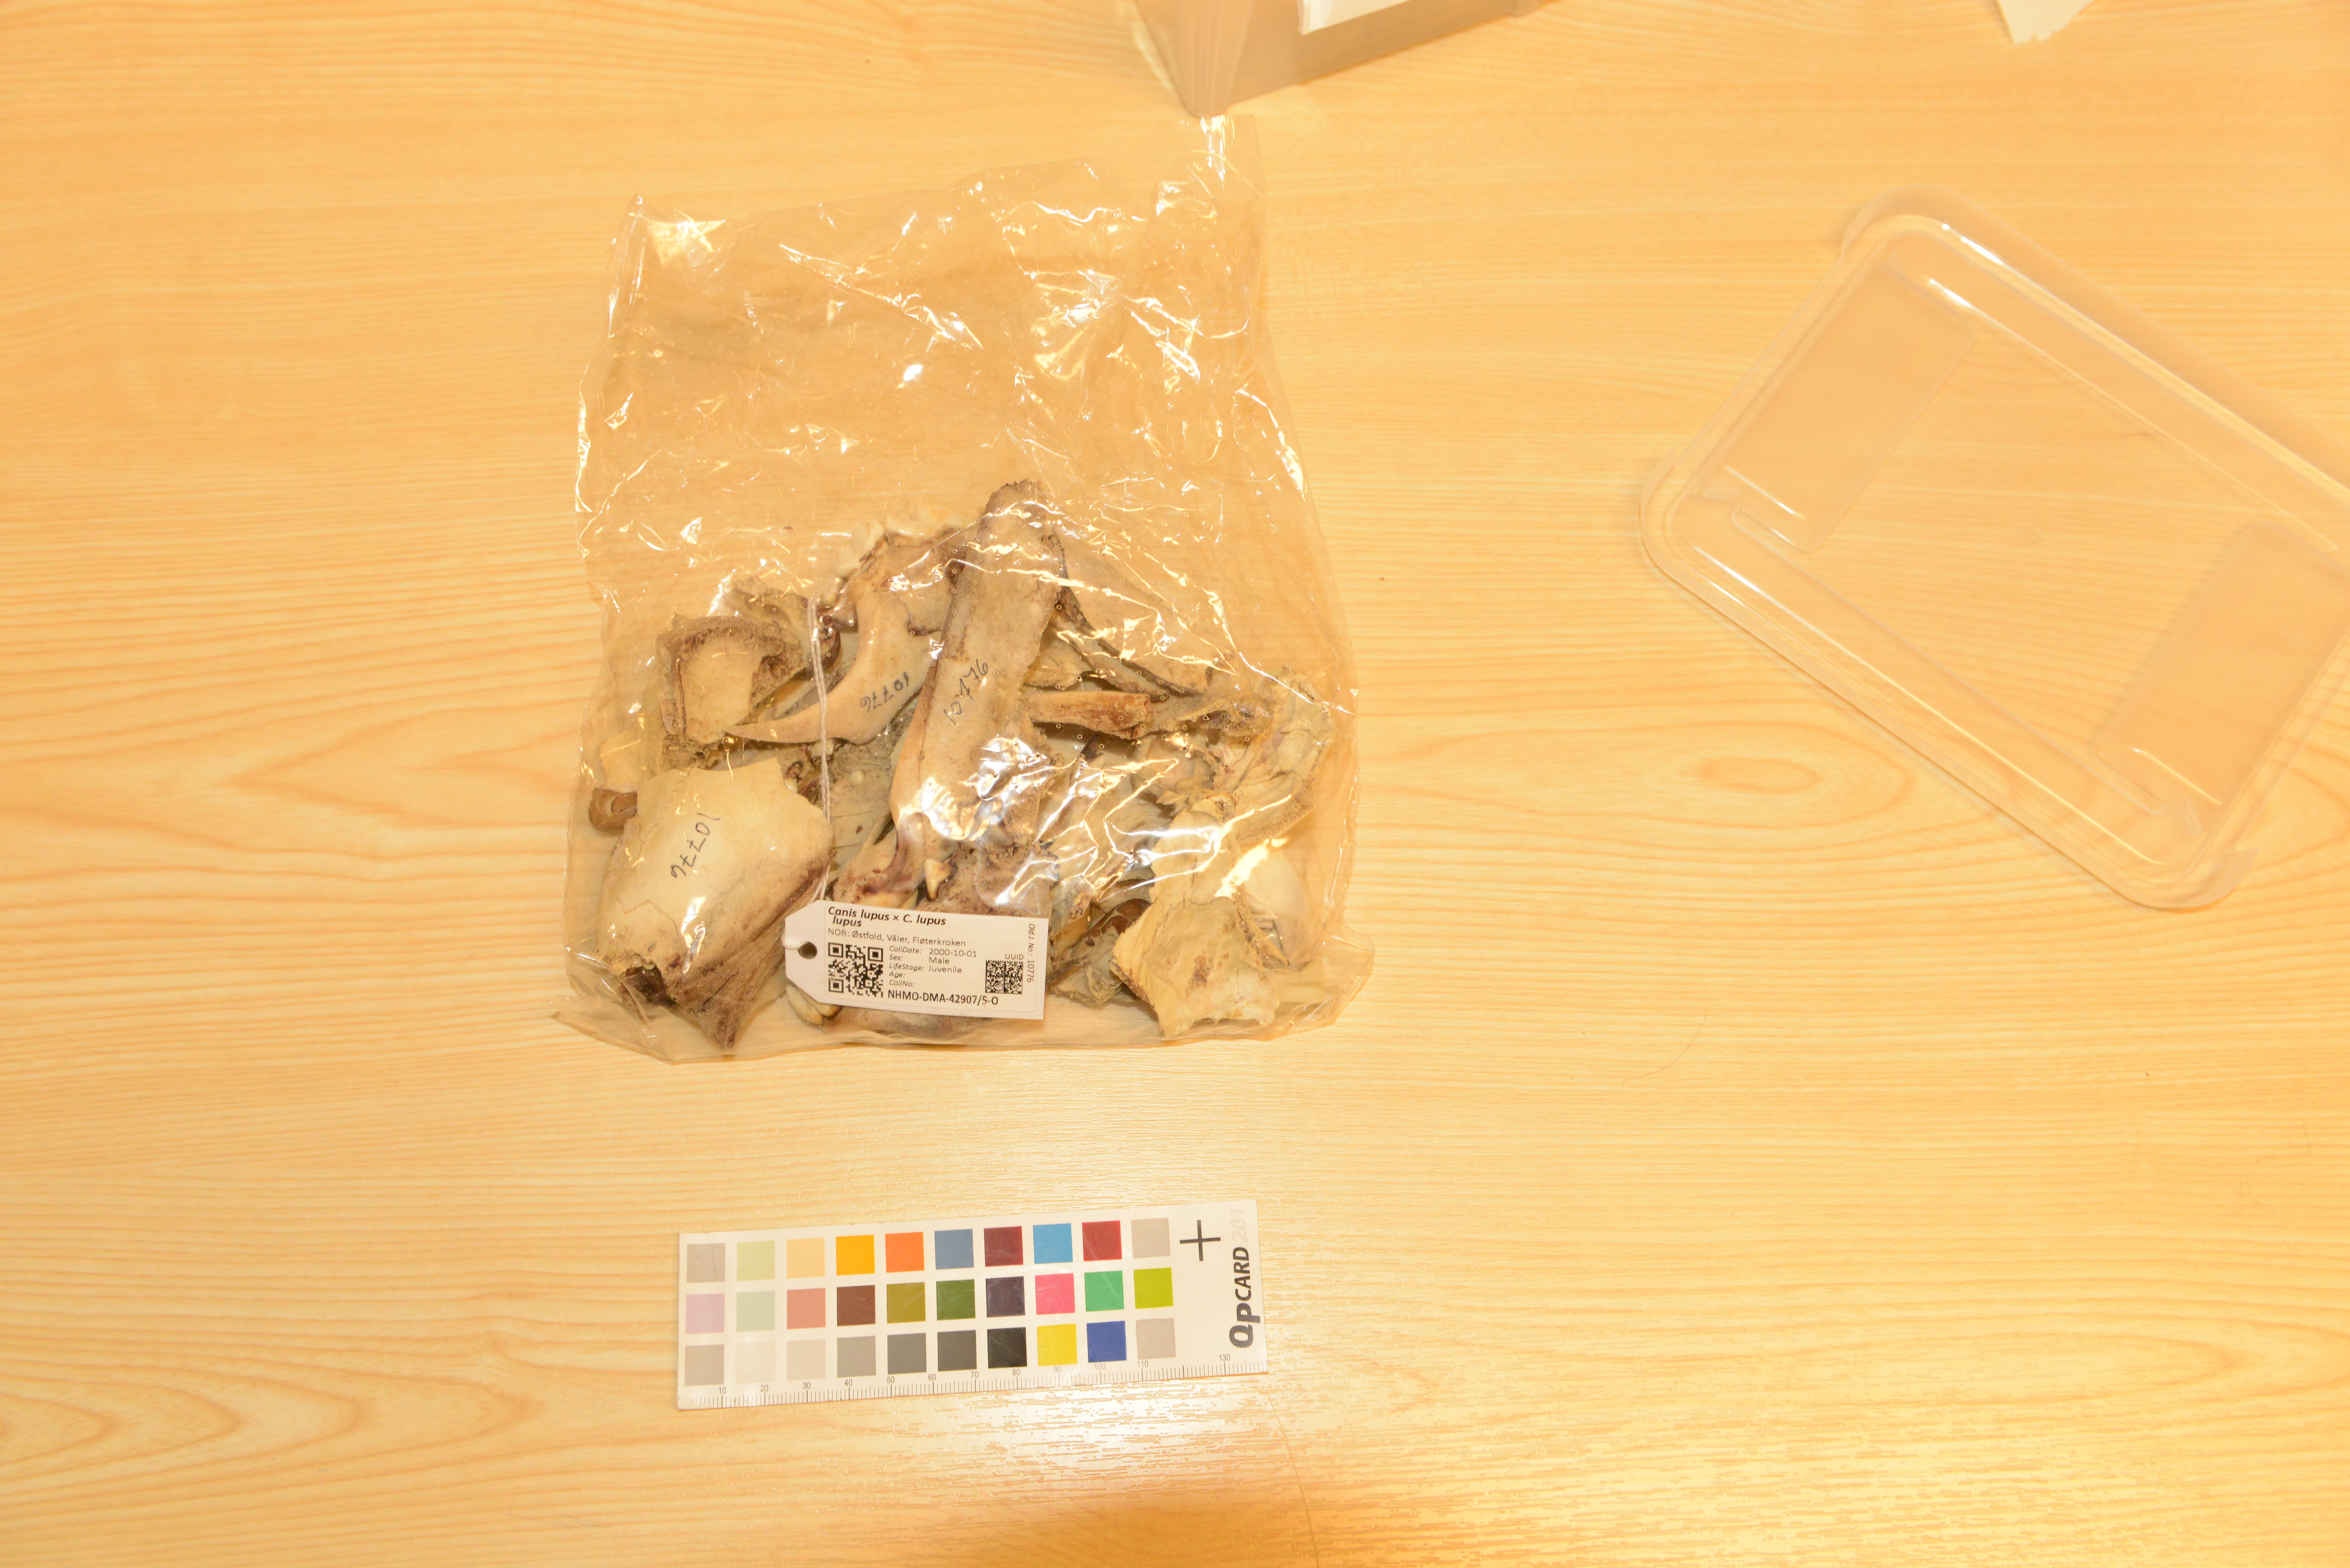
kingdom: Animalia
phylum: Chordata
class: Mammalia
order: Carnivora
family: Canidae
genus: Canis
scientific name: Canis
